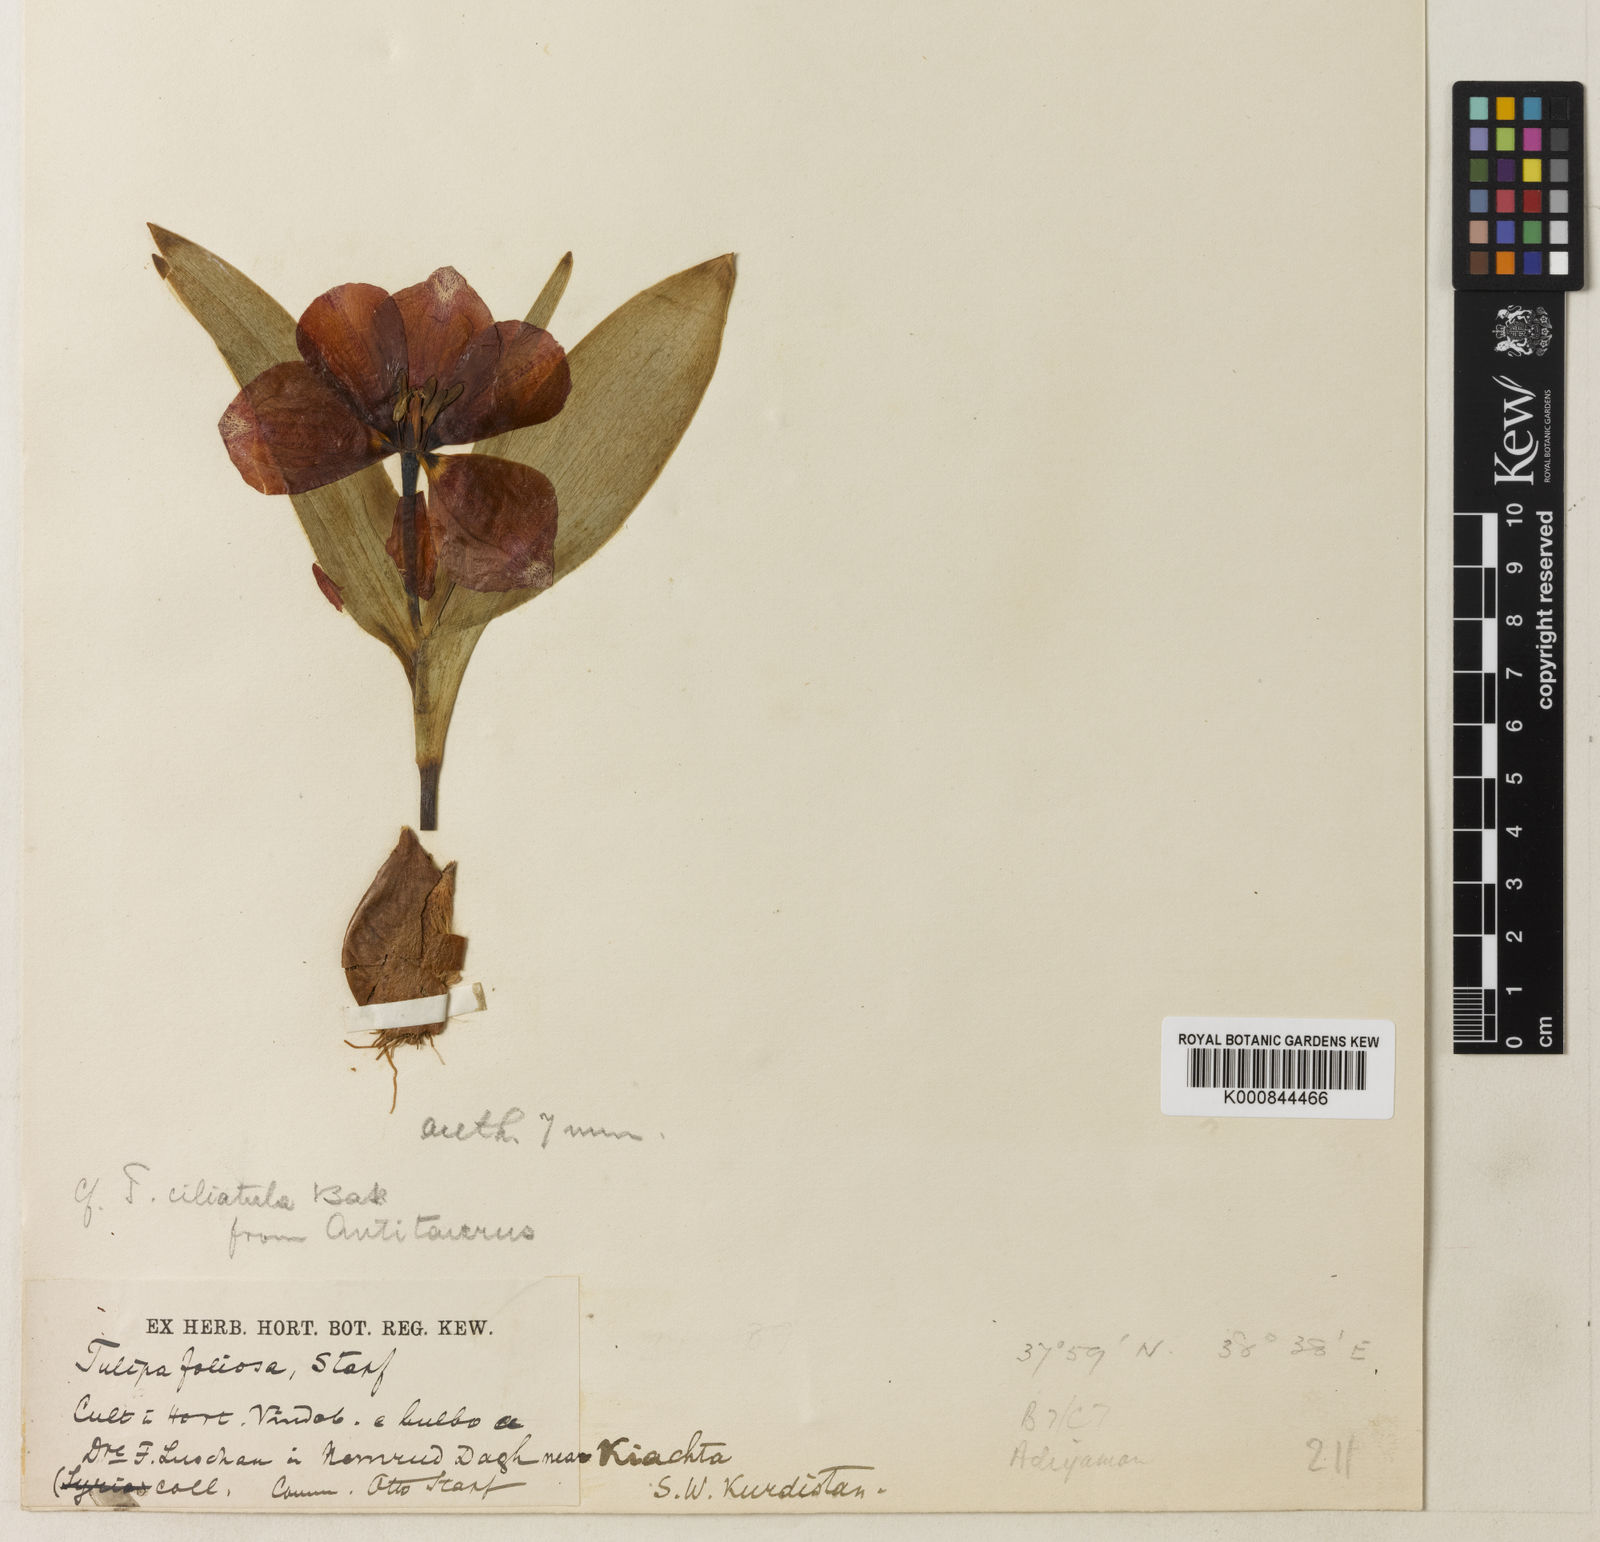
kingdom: Plantae
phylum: Tracheophyta
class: Liliopsida
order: Liliales
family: Liliaceae
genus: Tulipa
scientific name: Tulipa foliosa
